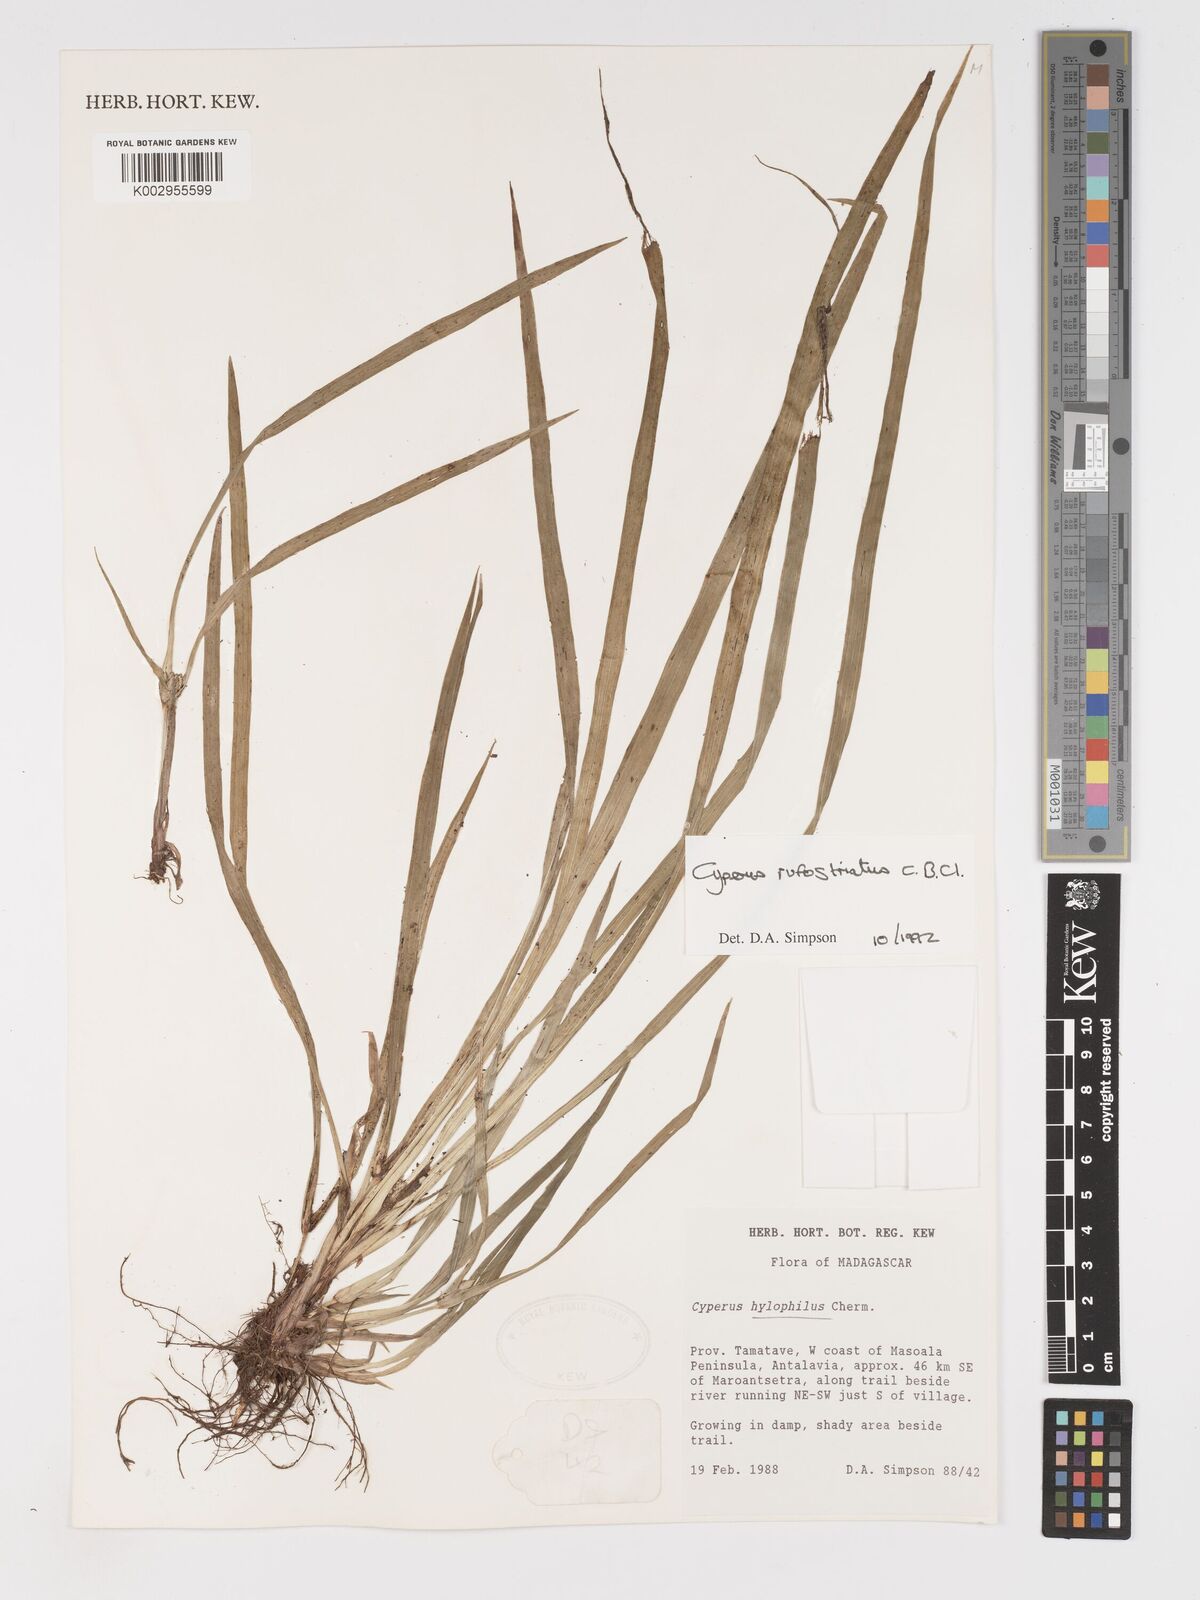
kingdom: Plantae
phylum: Tracheophyta
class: Liliopsida
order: Poales
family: Cyperaceae
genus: Cyperus
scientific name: Cyperus rufostriatus
